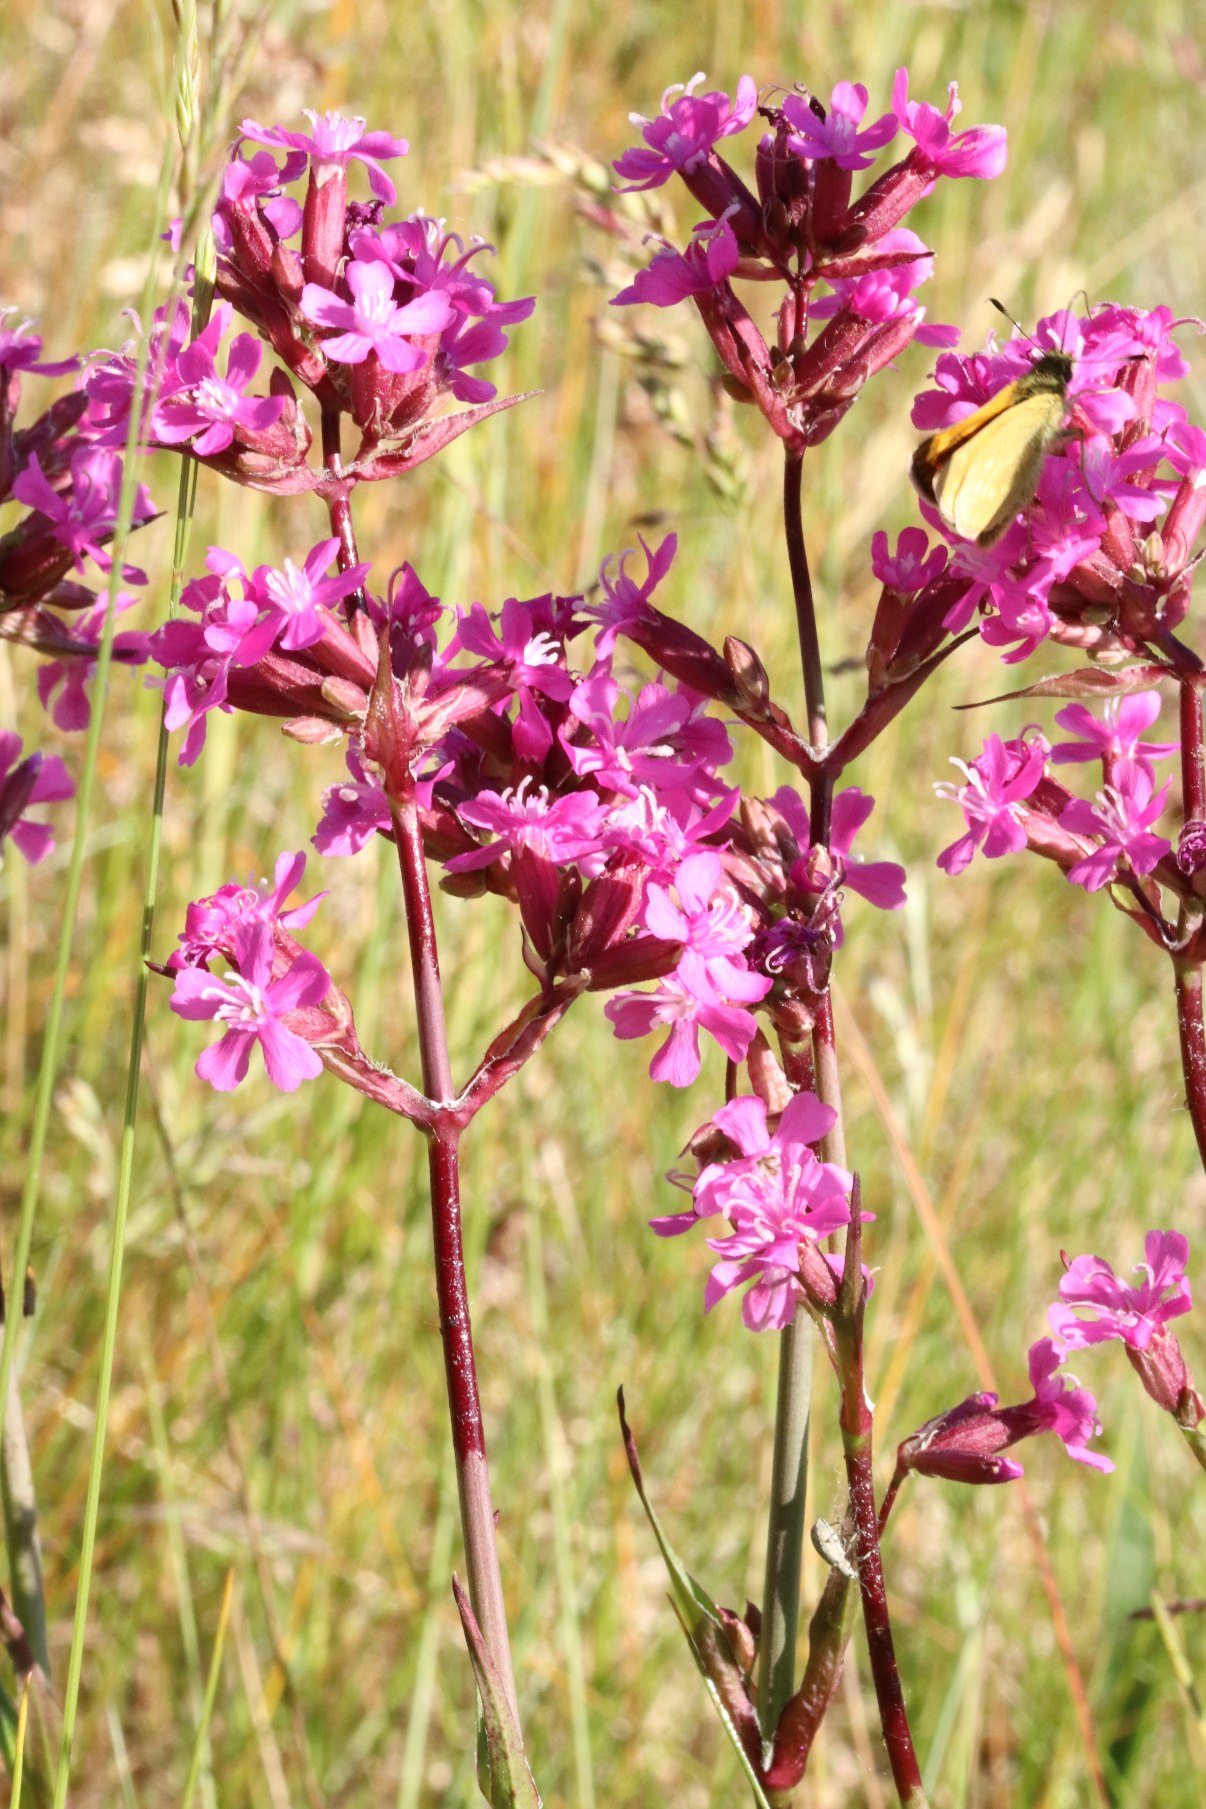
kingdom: Plantae
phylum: Tracheophyta
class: Magnoliopsida
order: Caryophyllales
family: Caryophyllaceae
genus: Viscaria
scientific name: Viscaria vulgaris
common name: Tjærenellike
